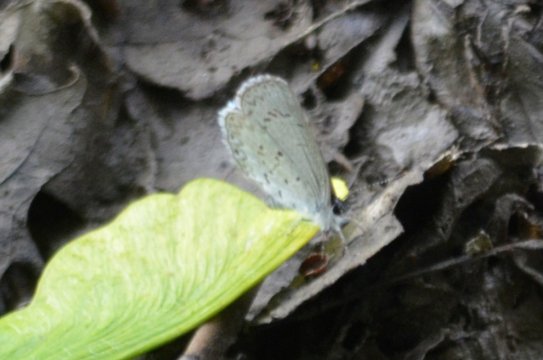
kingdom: Animalia
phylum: Arthropoda
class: Insecta
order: Lepidoptera
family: Lycaenidae
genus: Celastrina
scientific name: Celastrina lucia
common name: Northern Spring Azure
